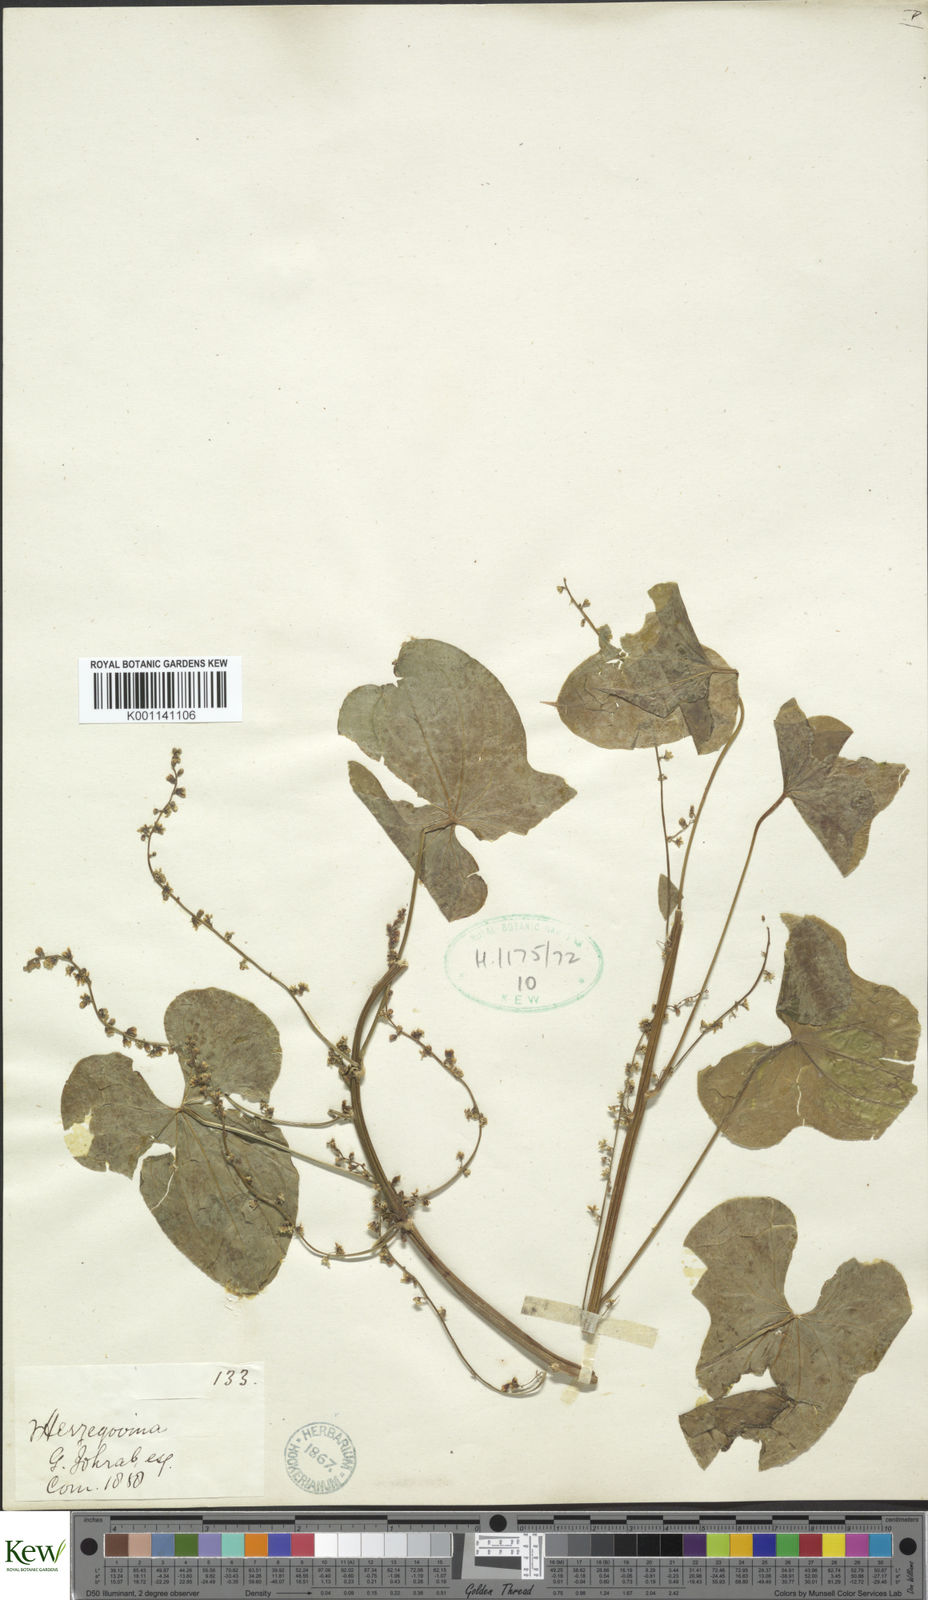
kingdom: Plantae
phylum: Tracheophyta
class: Liliopsida
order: Dioscoreales
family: Dioscoreaceae
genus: Dioscorea
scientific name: Dioscorea communis
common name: Black-bindweed
